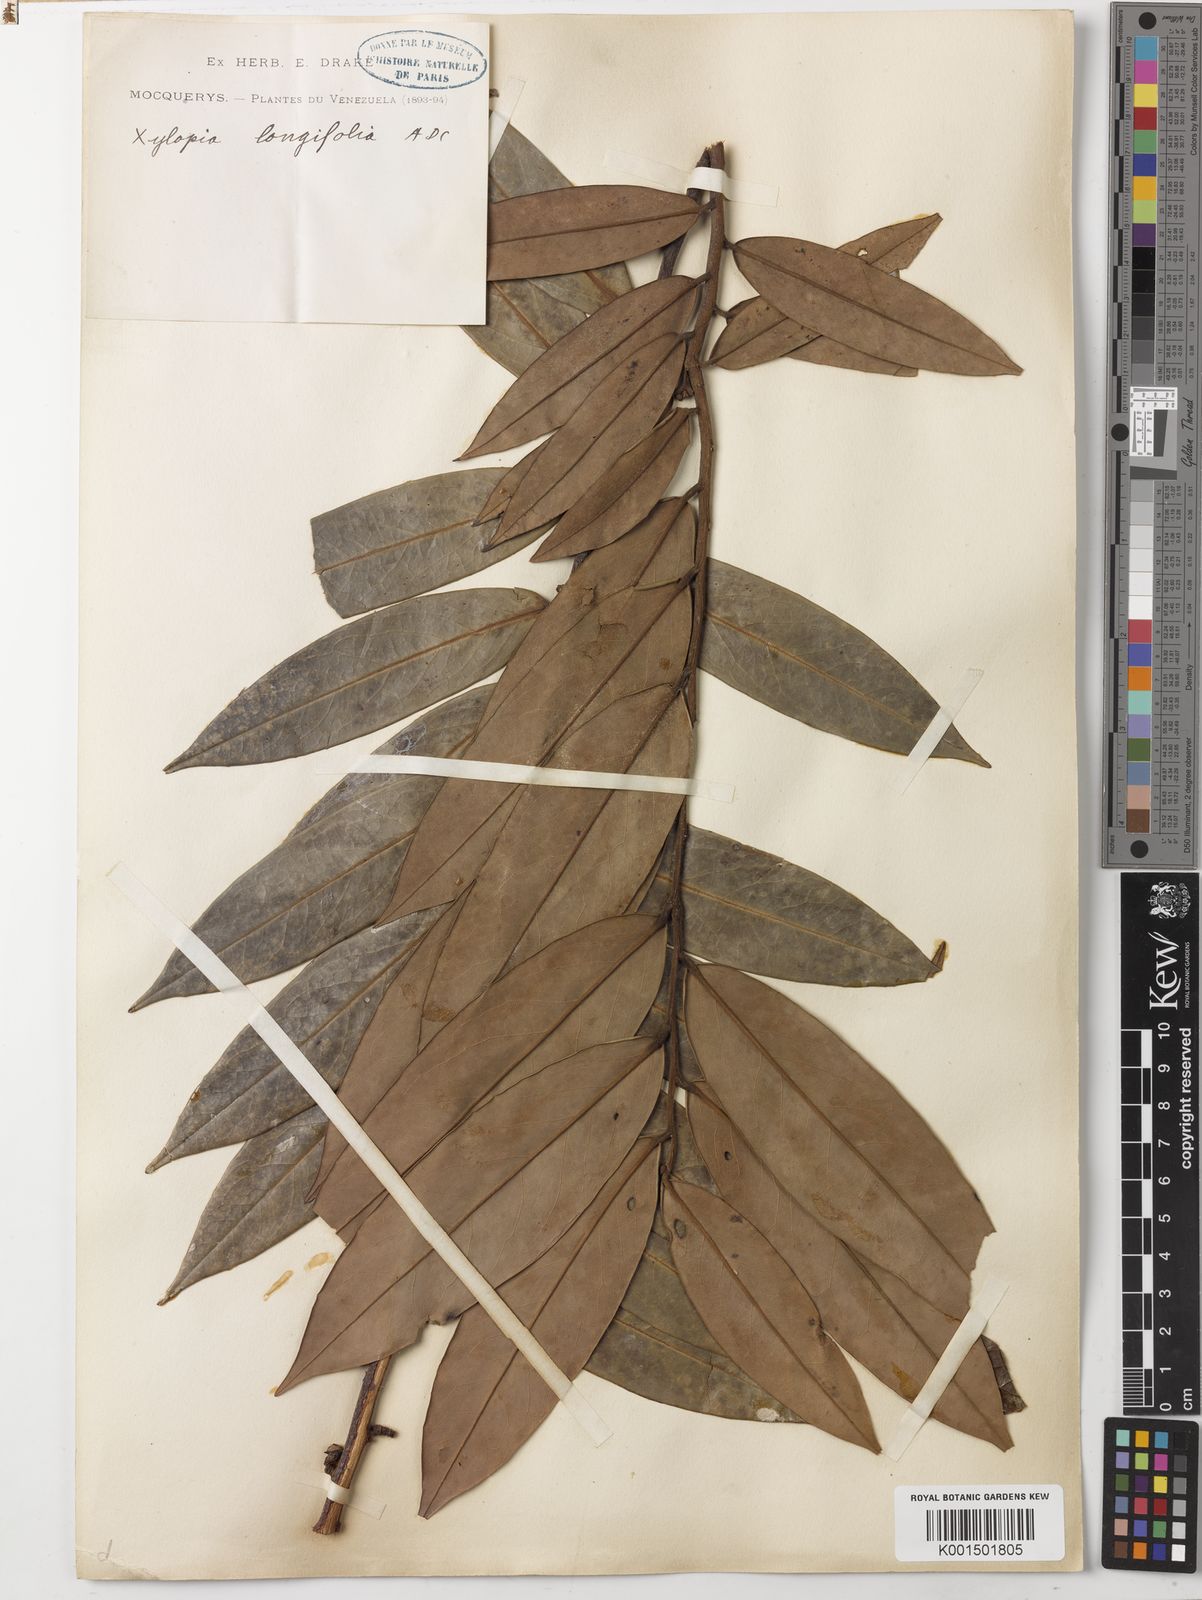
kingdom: Plantae
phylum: Tracheophyta
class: Magnoliopsida
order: Magnoliales
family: Annonaceae
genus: Xylopia
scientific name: Xylopia aromatica
